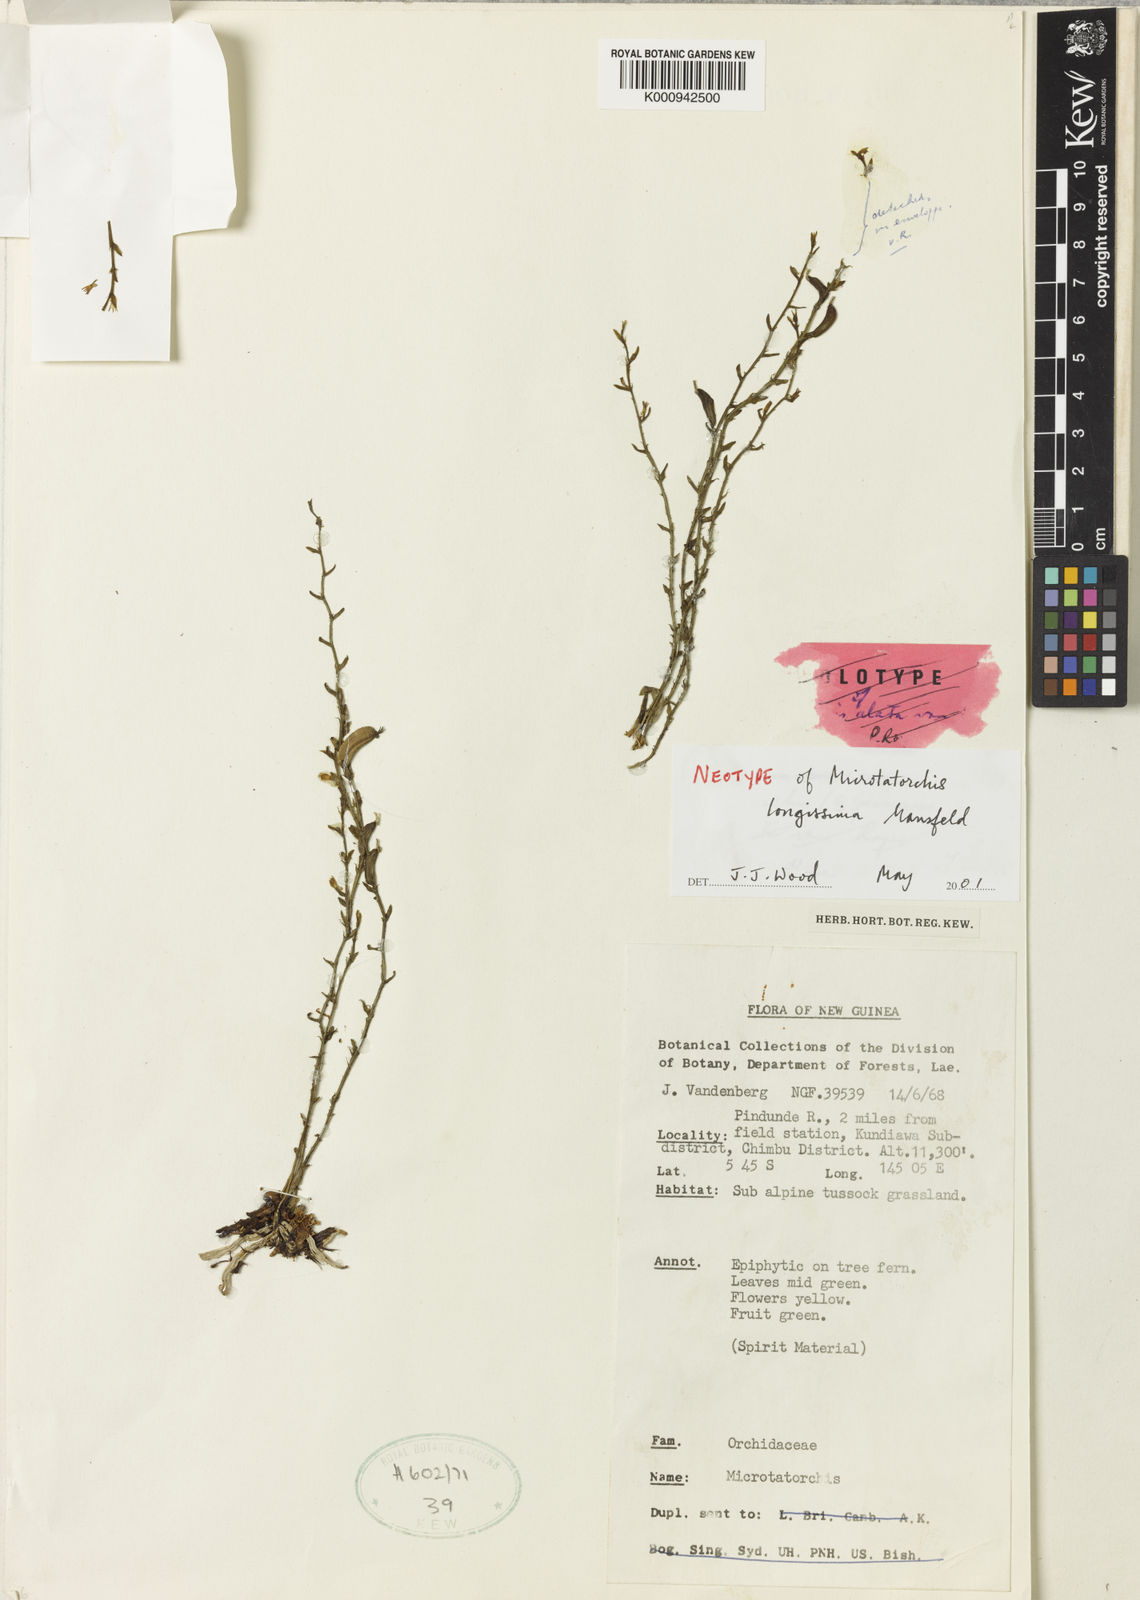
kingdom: Plantae
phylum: Tracheophyta
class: Liliopsida
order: Asparagales
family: Orchidaceae
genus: Taeniophyllum
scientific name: Taeniophyllum multiflorum
